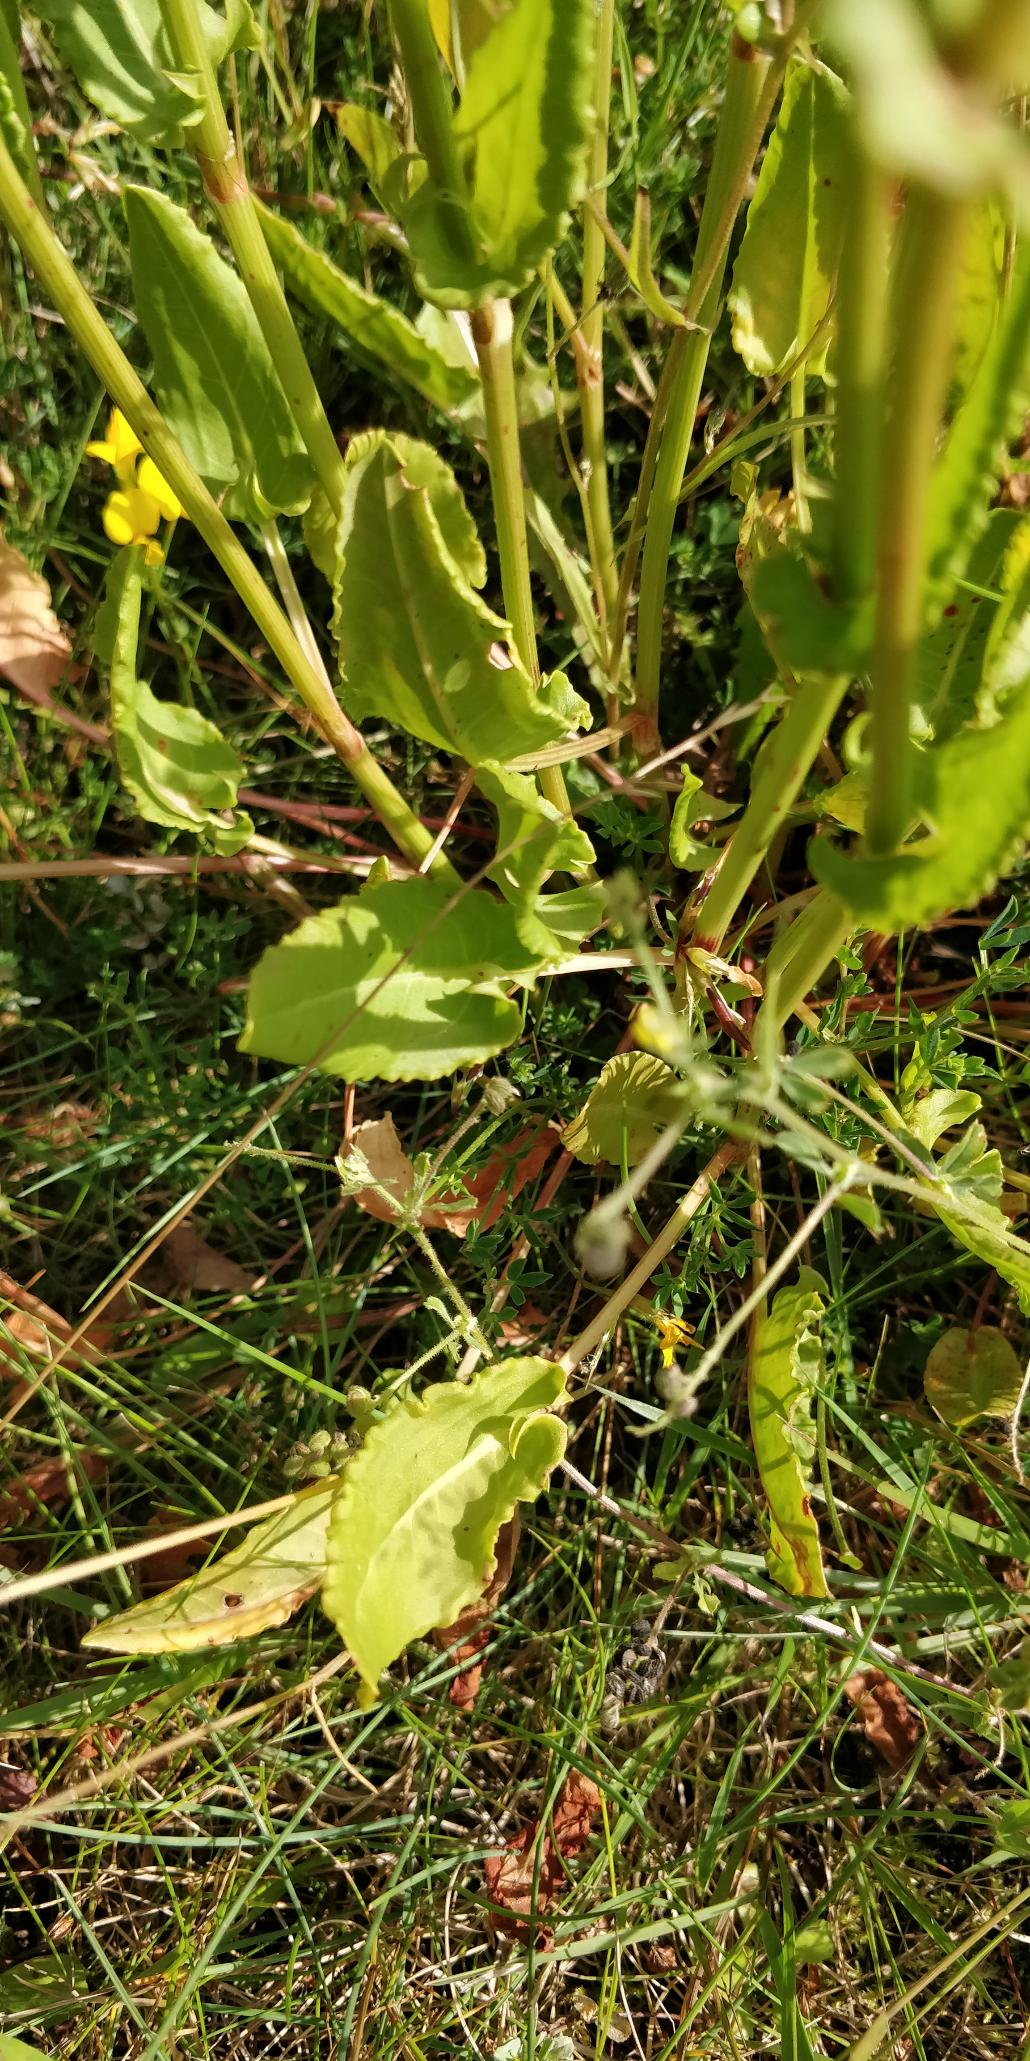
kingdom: Plantae
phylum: Tracheophyta
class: Magnoliopsida
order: Caryophyllales
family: Polygonaceae
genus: Rumex
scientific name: Rumex acetosa
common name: Almindelig syre
